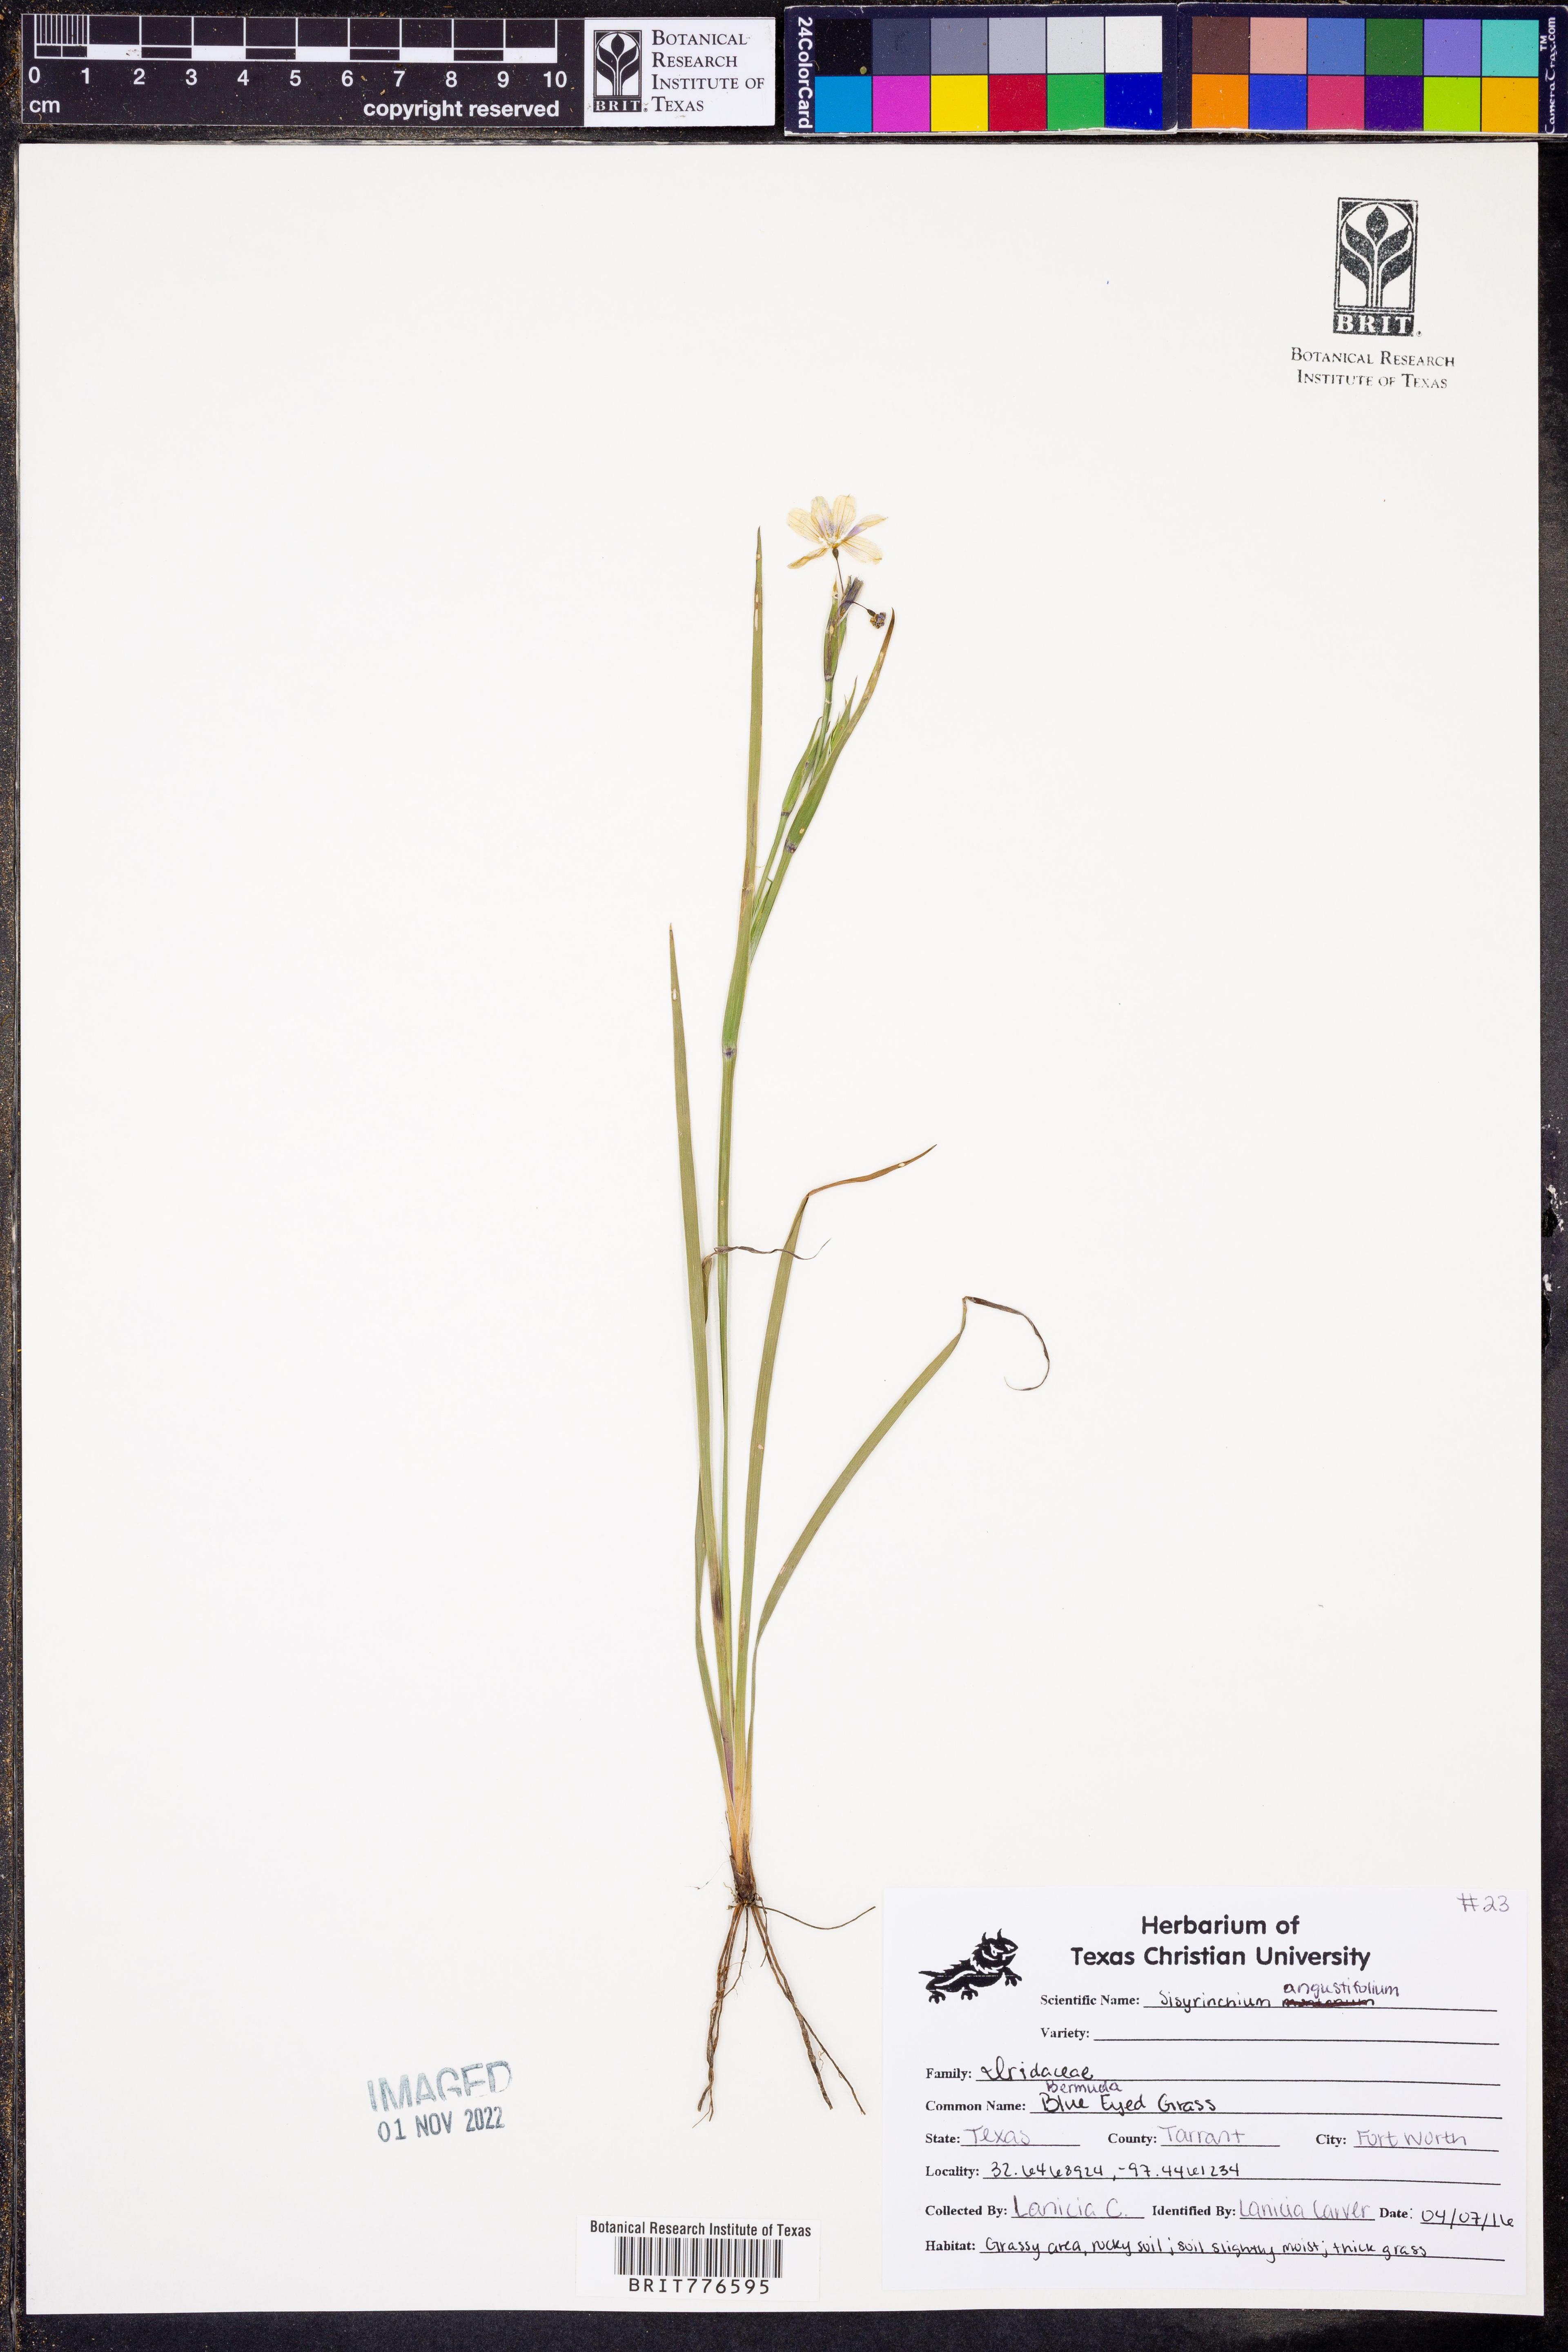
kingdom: Plantae
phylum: Tracheophyta
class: Liliopsida
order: Asparagales
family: Iridaceae
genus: Sisyrinchium
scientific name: Sisyrinchium angustifolium
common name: Narrow-leaf blue-eyed-grass
